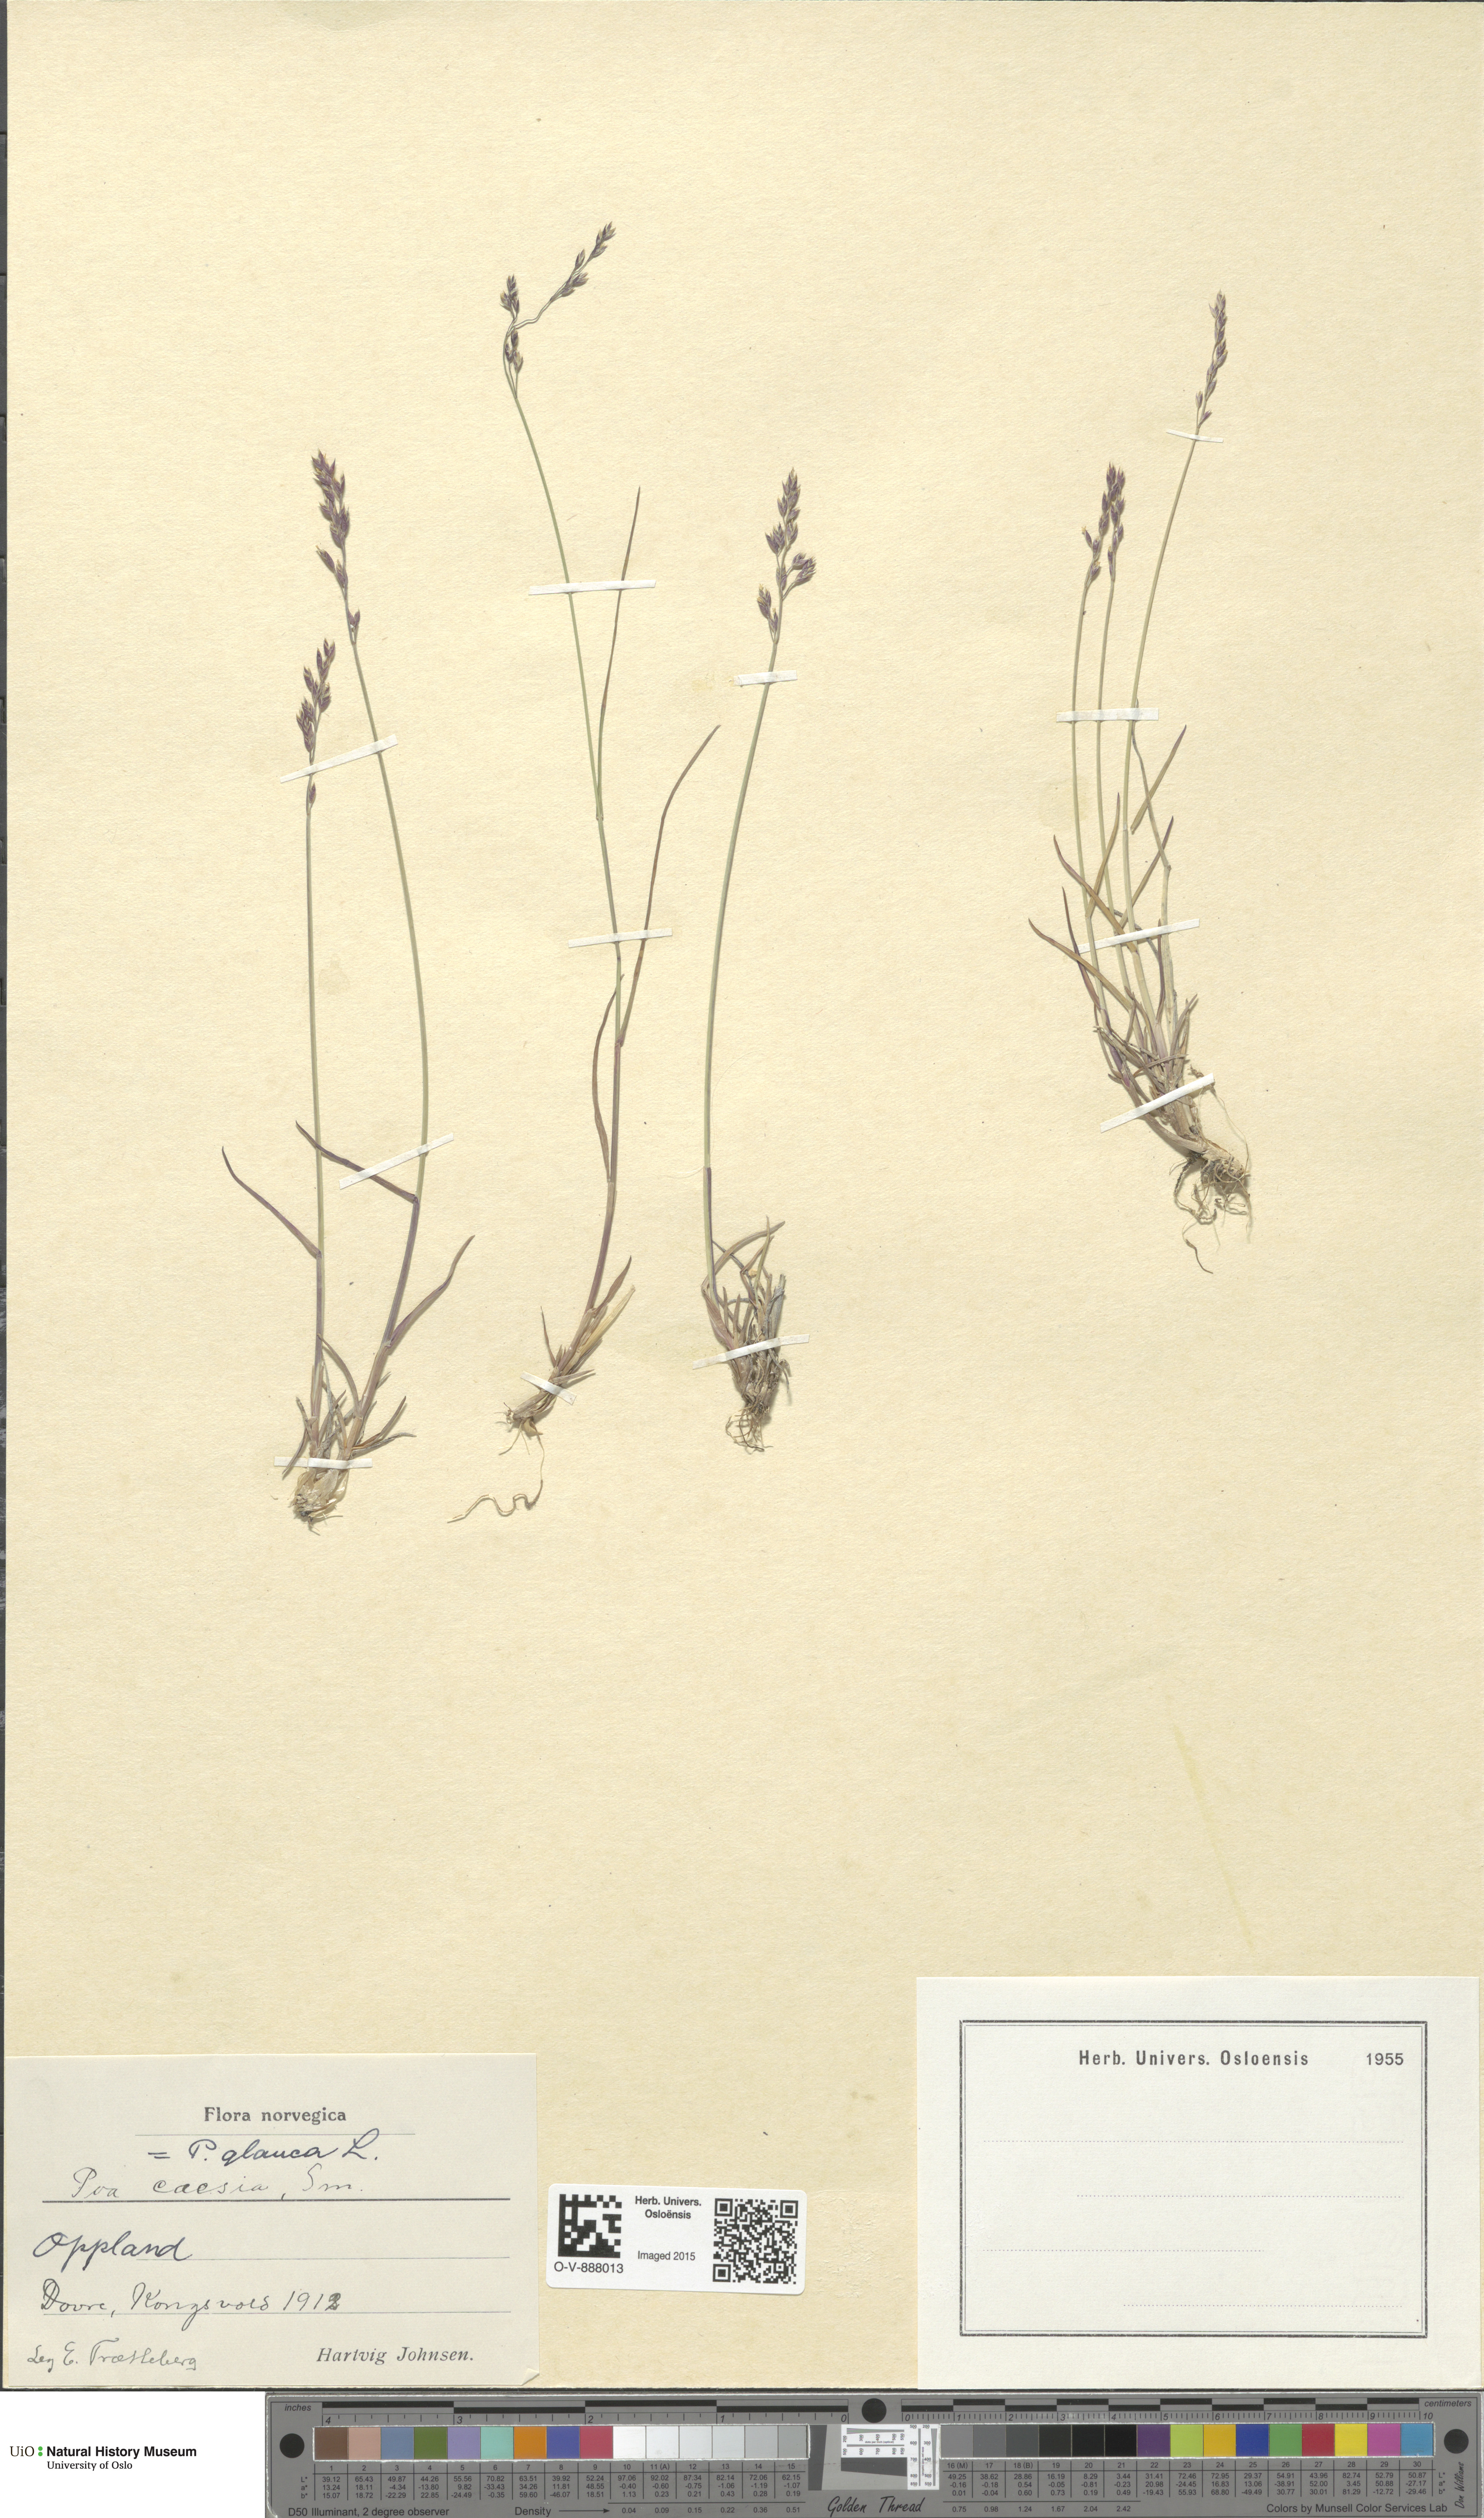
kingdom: Plantae
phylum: Tracheophyta
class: Liliopsida
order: Poales
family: Poaceae
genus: Poa
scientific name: Poa glauca
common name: Glaucous bluegrass
